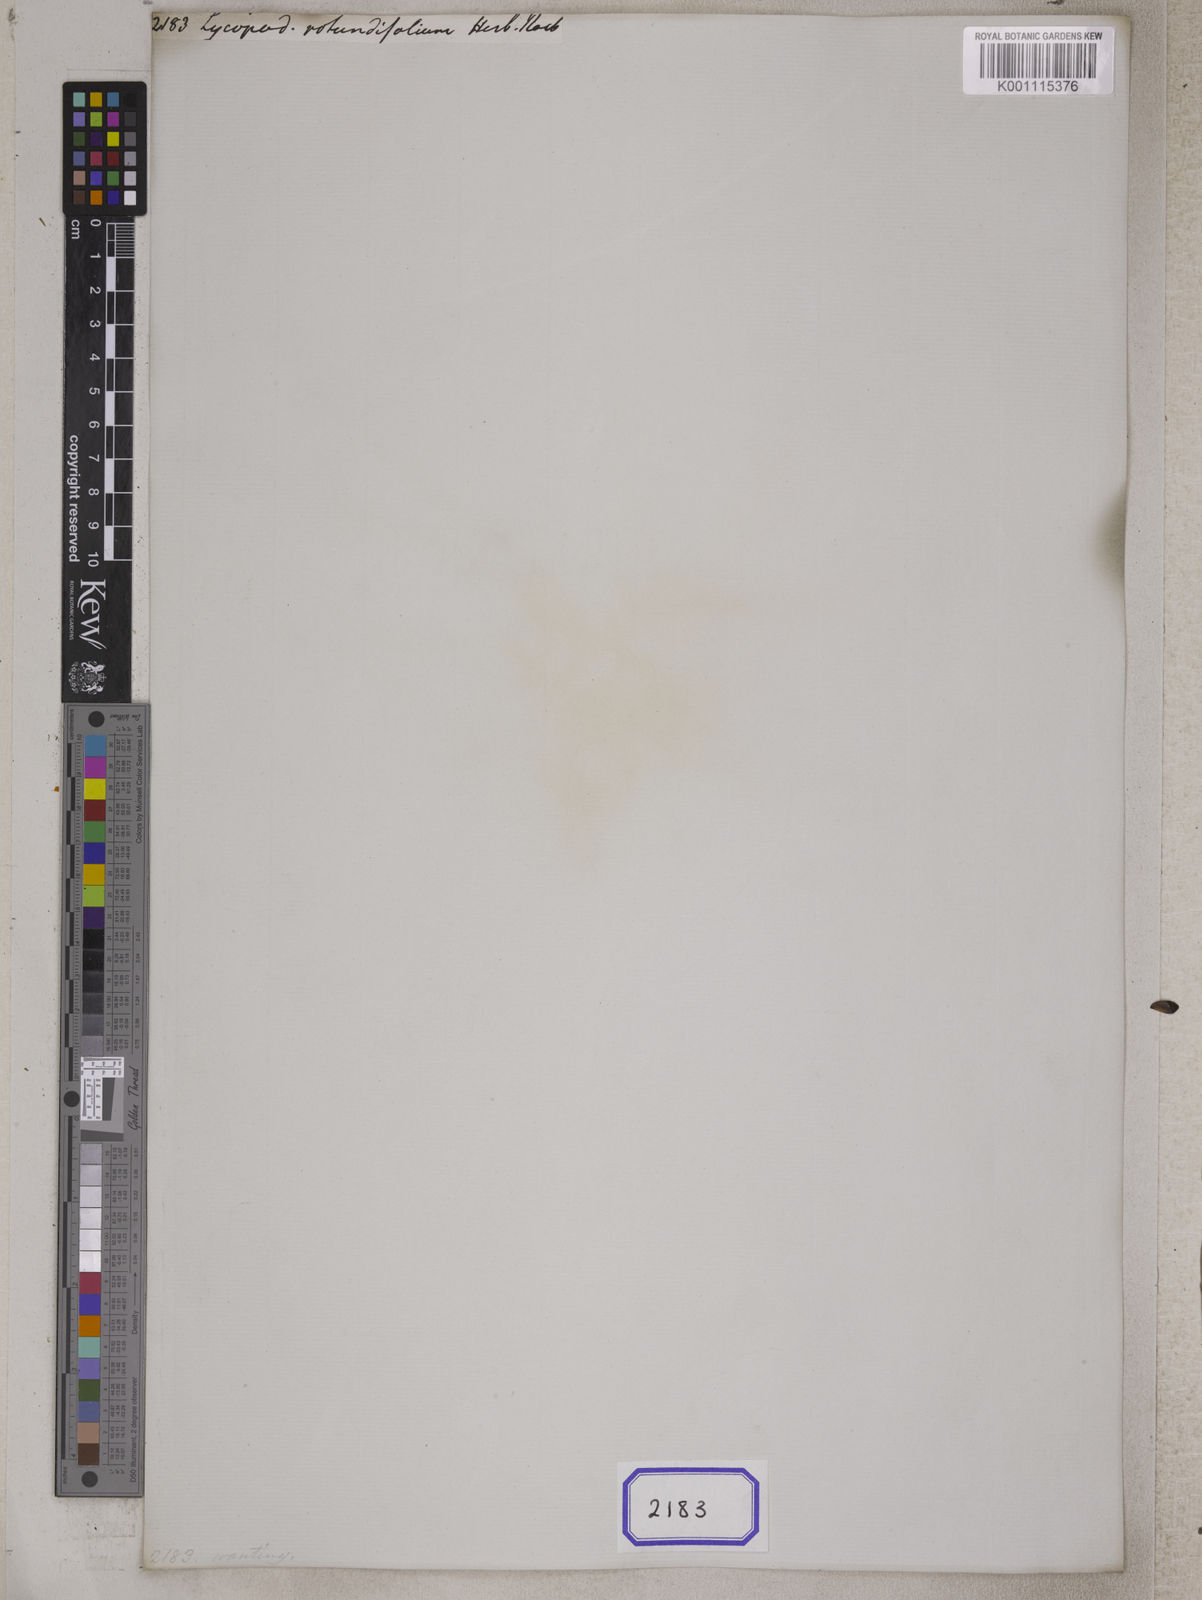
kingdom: Plantae
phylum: Tracheophyta
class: Lycopodiopsida
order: Lycopodiales
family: Lycopodiaceae
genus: Lycopodium
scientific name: Lycopodium
